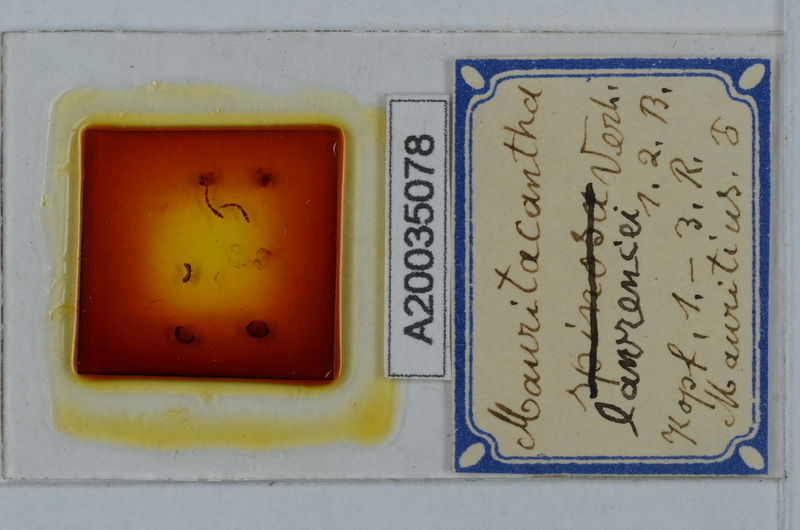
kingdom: Animalia
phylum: Arthropoda
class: Diplopoda
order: Polydesmida
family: Trichopolydesmidae
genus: Mauritacantha
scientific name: Mauritacantha lawrencei
